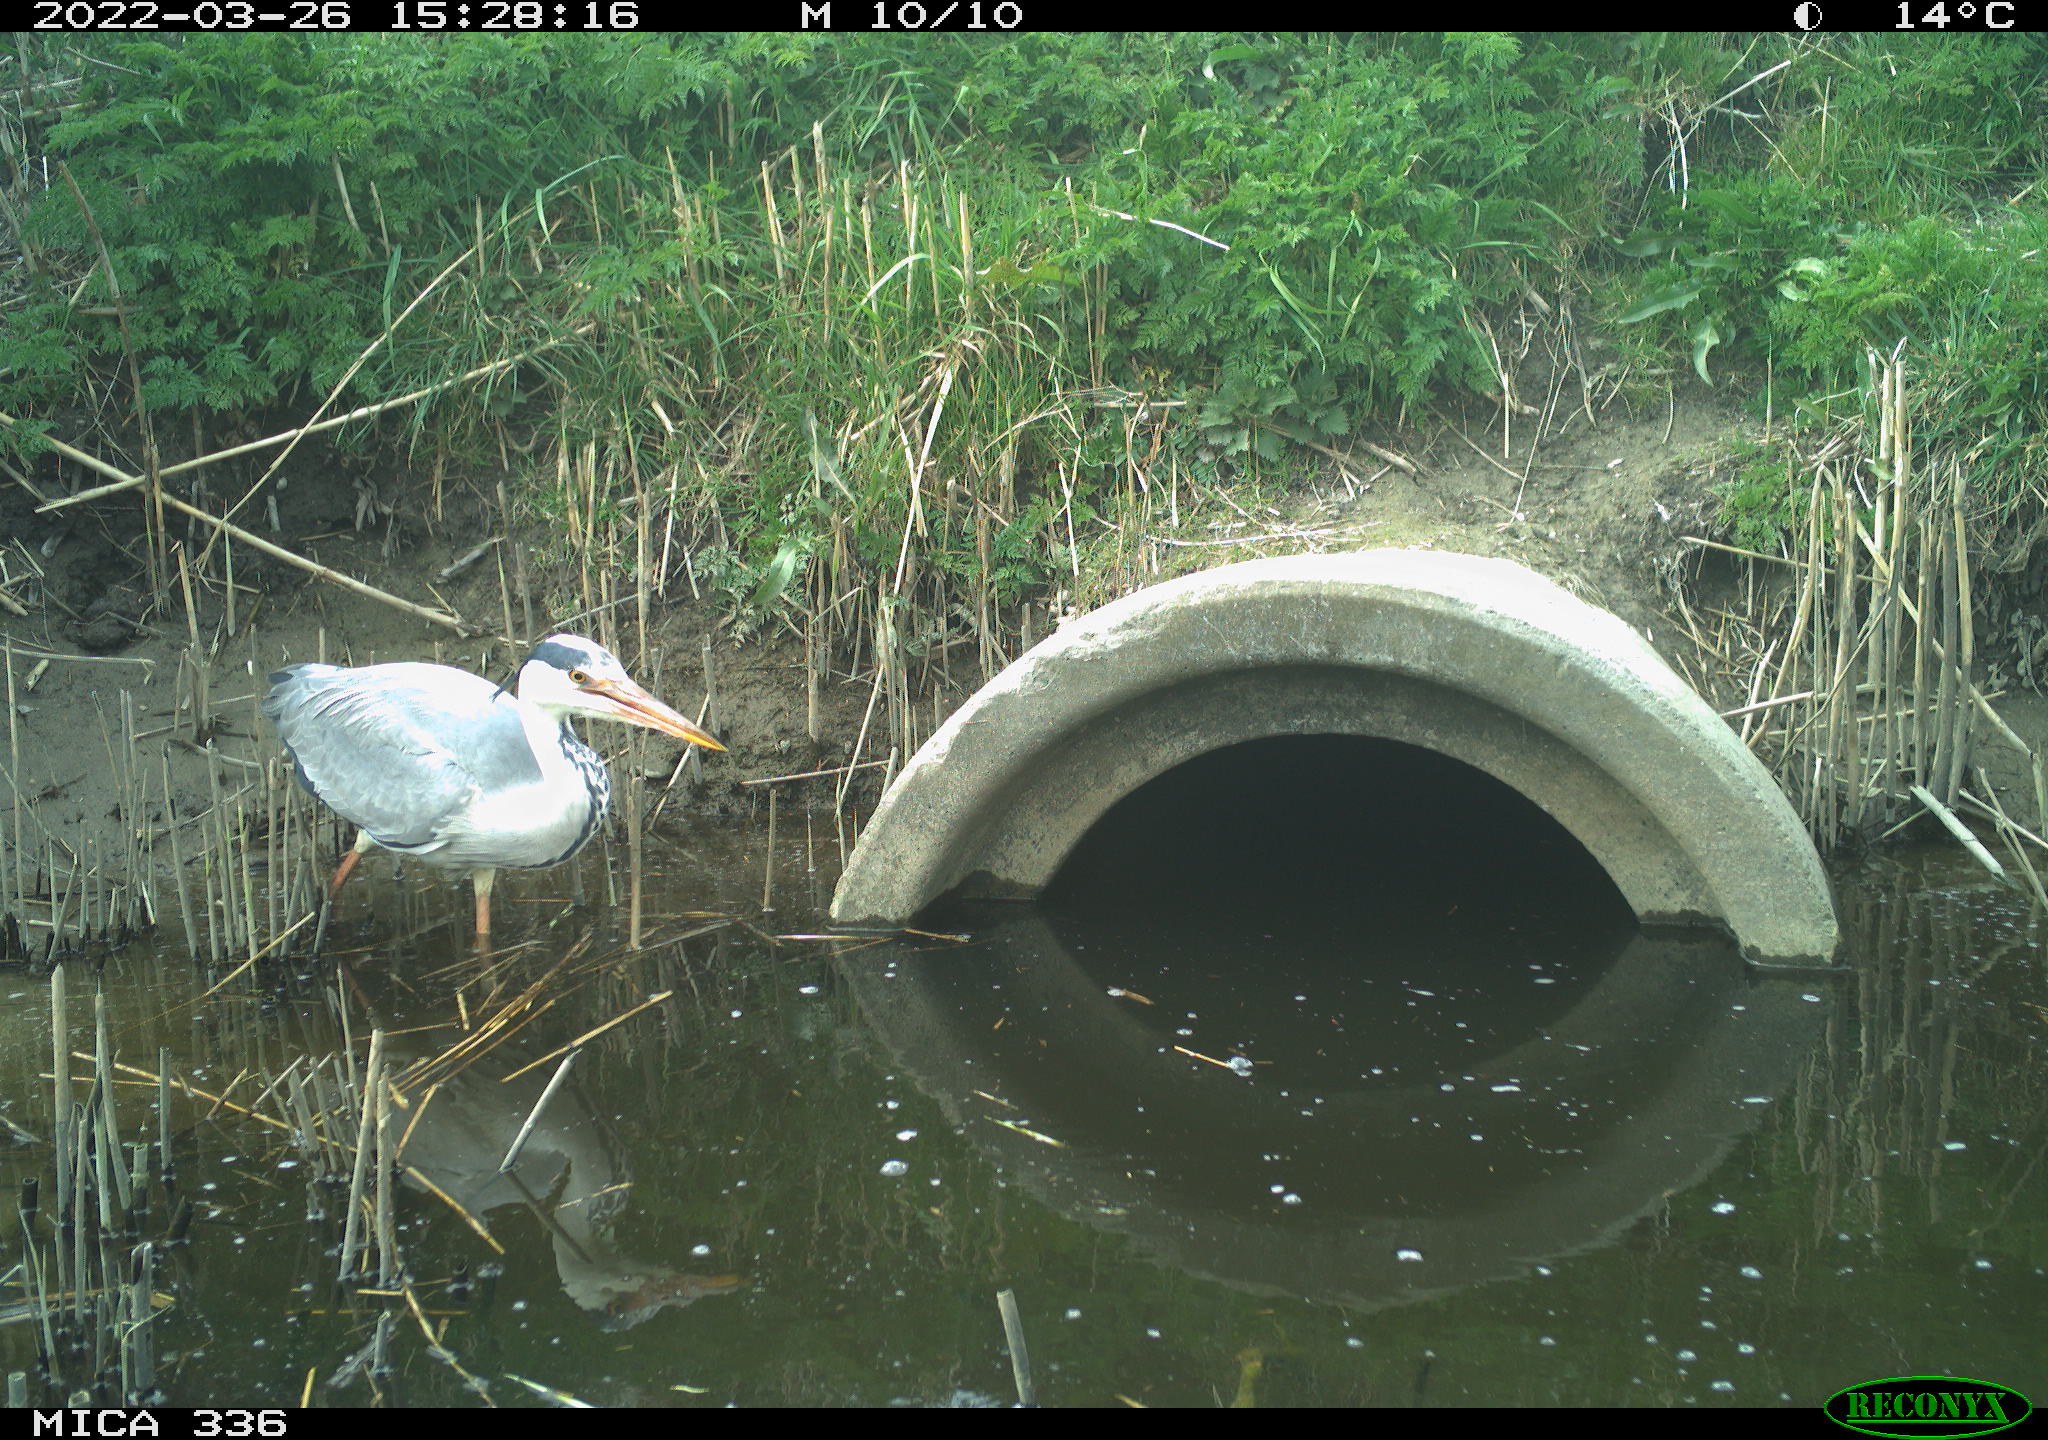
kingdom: Animalia
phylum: Chordata
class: Aves
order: Pelecaniformes
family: Ardeidae
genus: Ardea
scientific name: Ardea cinerea
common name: Grey heron
